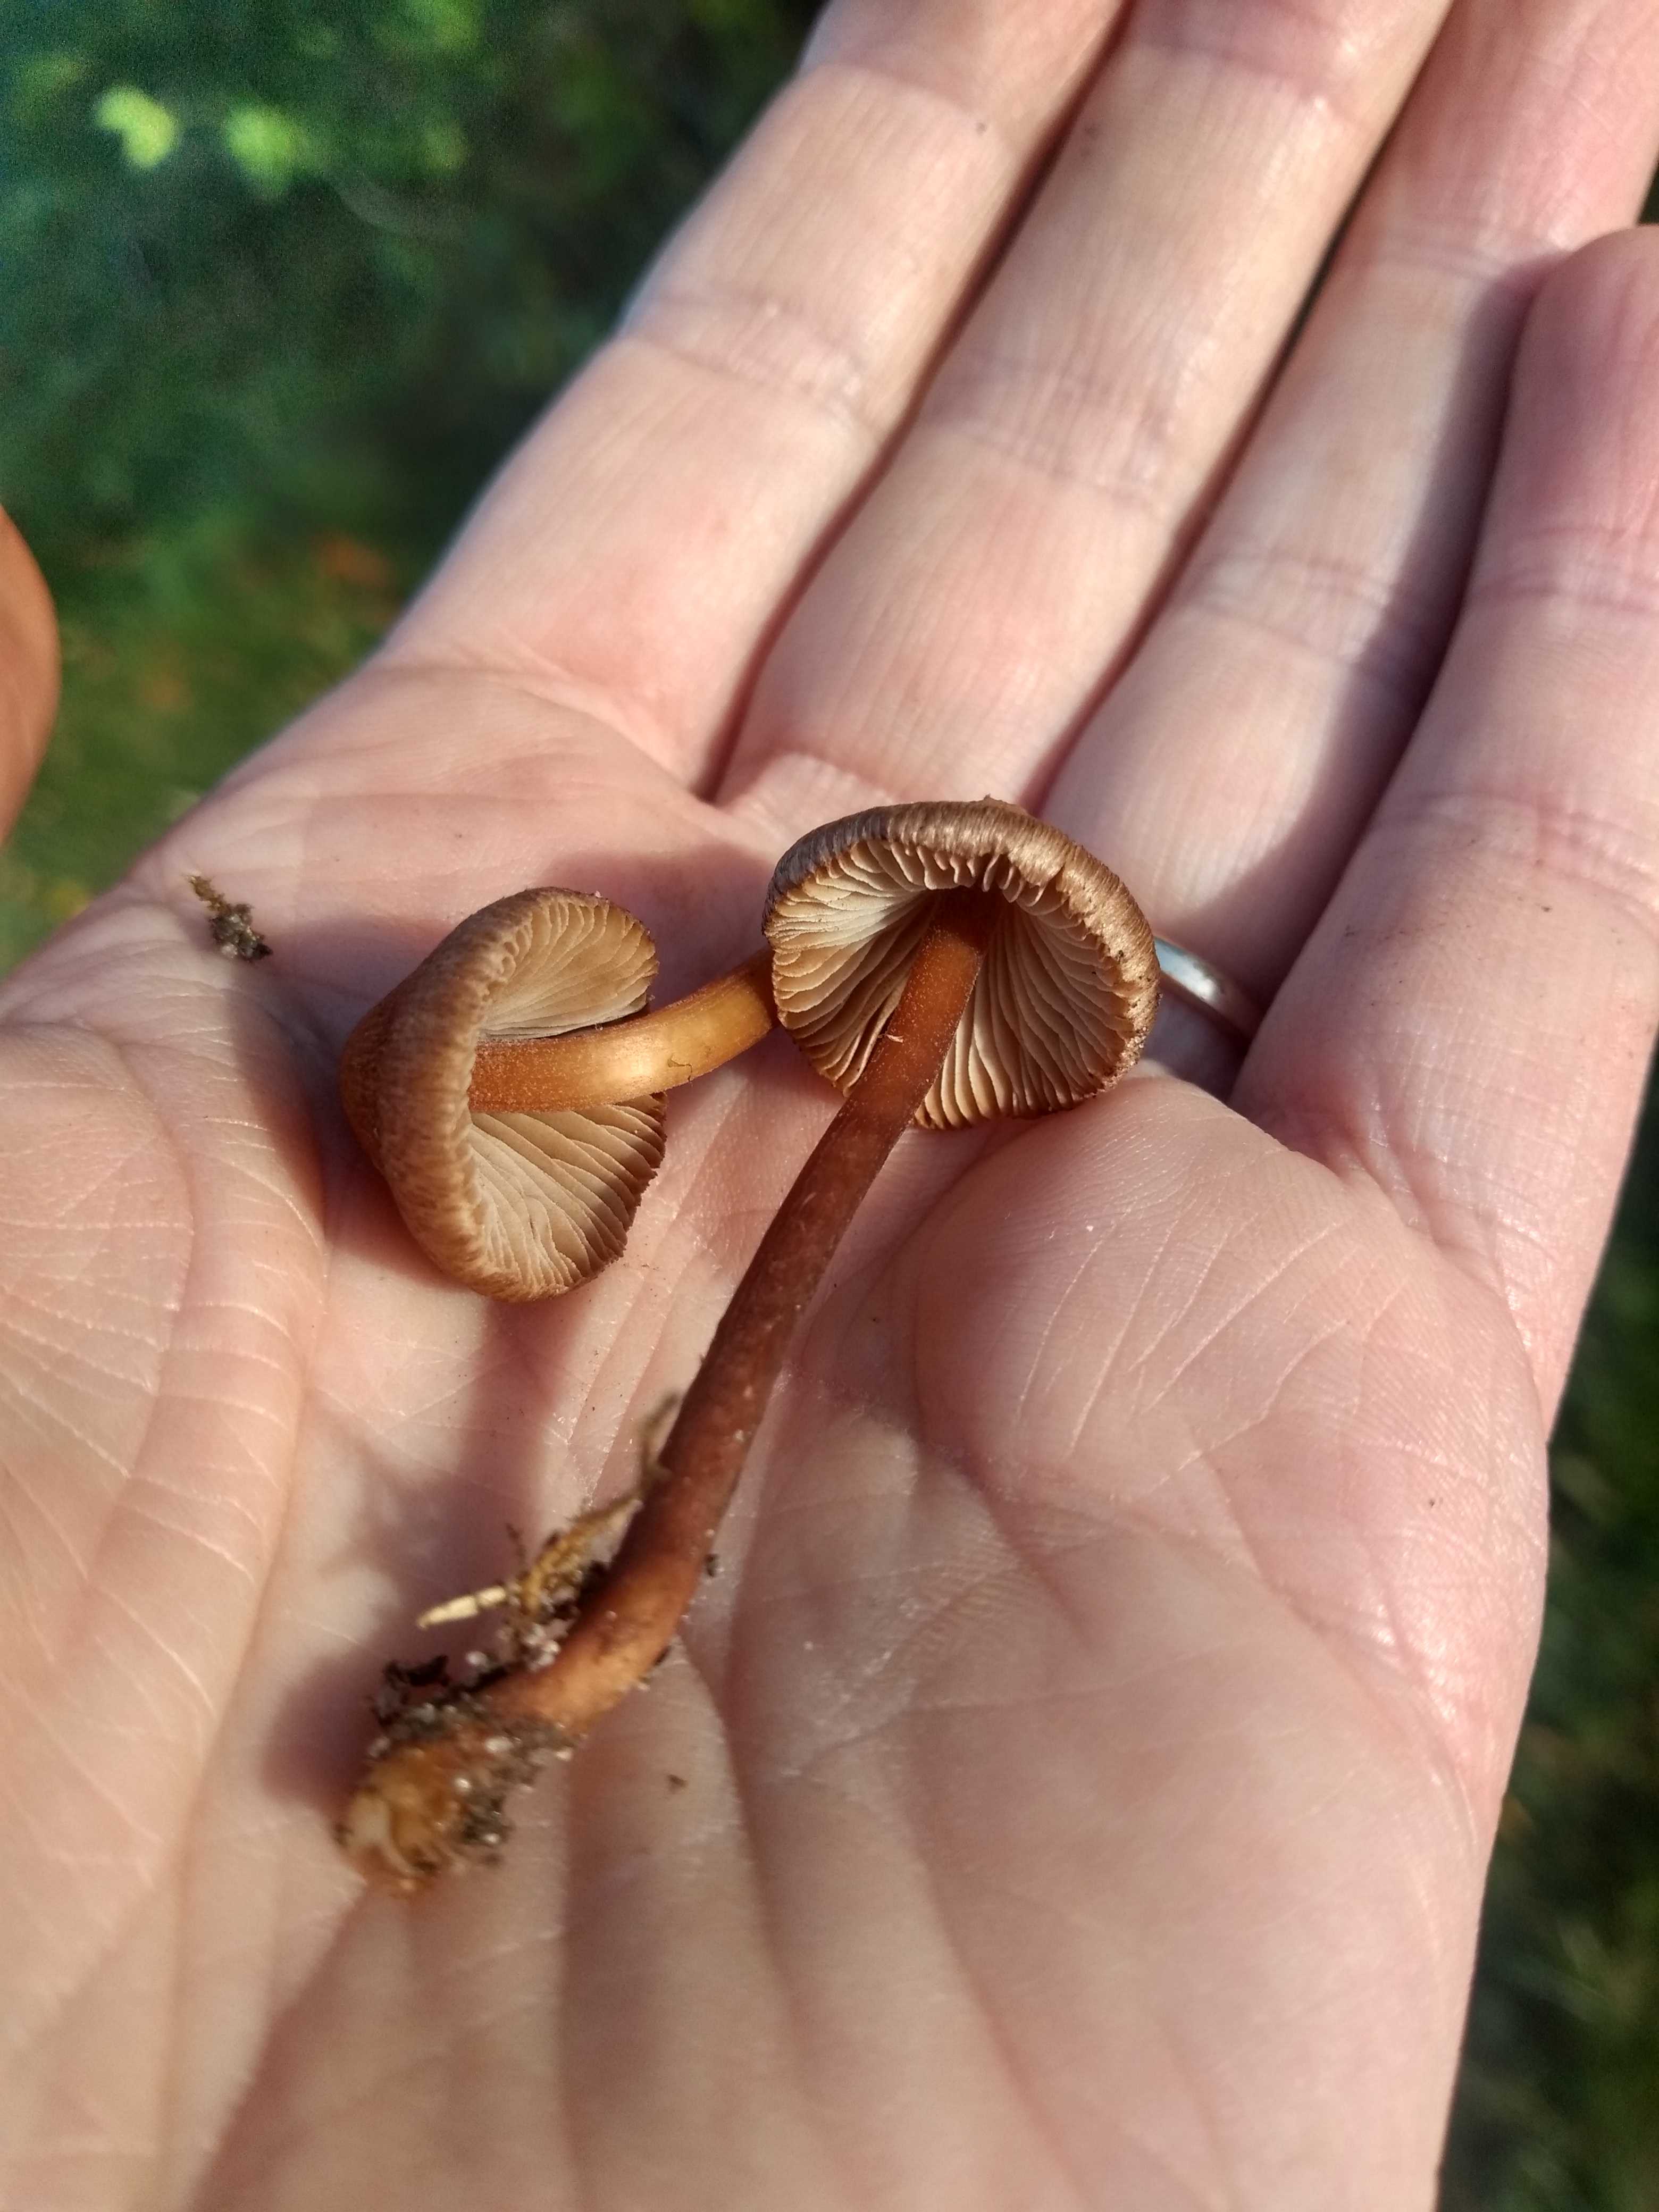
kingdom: Fungi
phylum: Basidiomycota
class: Agaricomycetes
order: Agaricales
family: Inocybaceae
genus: Inocybe
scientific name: Inocybe
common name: trævlhat
